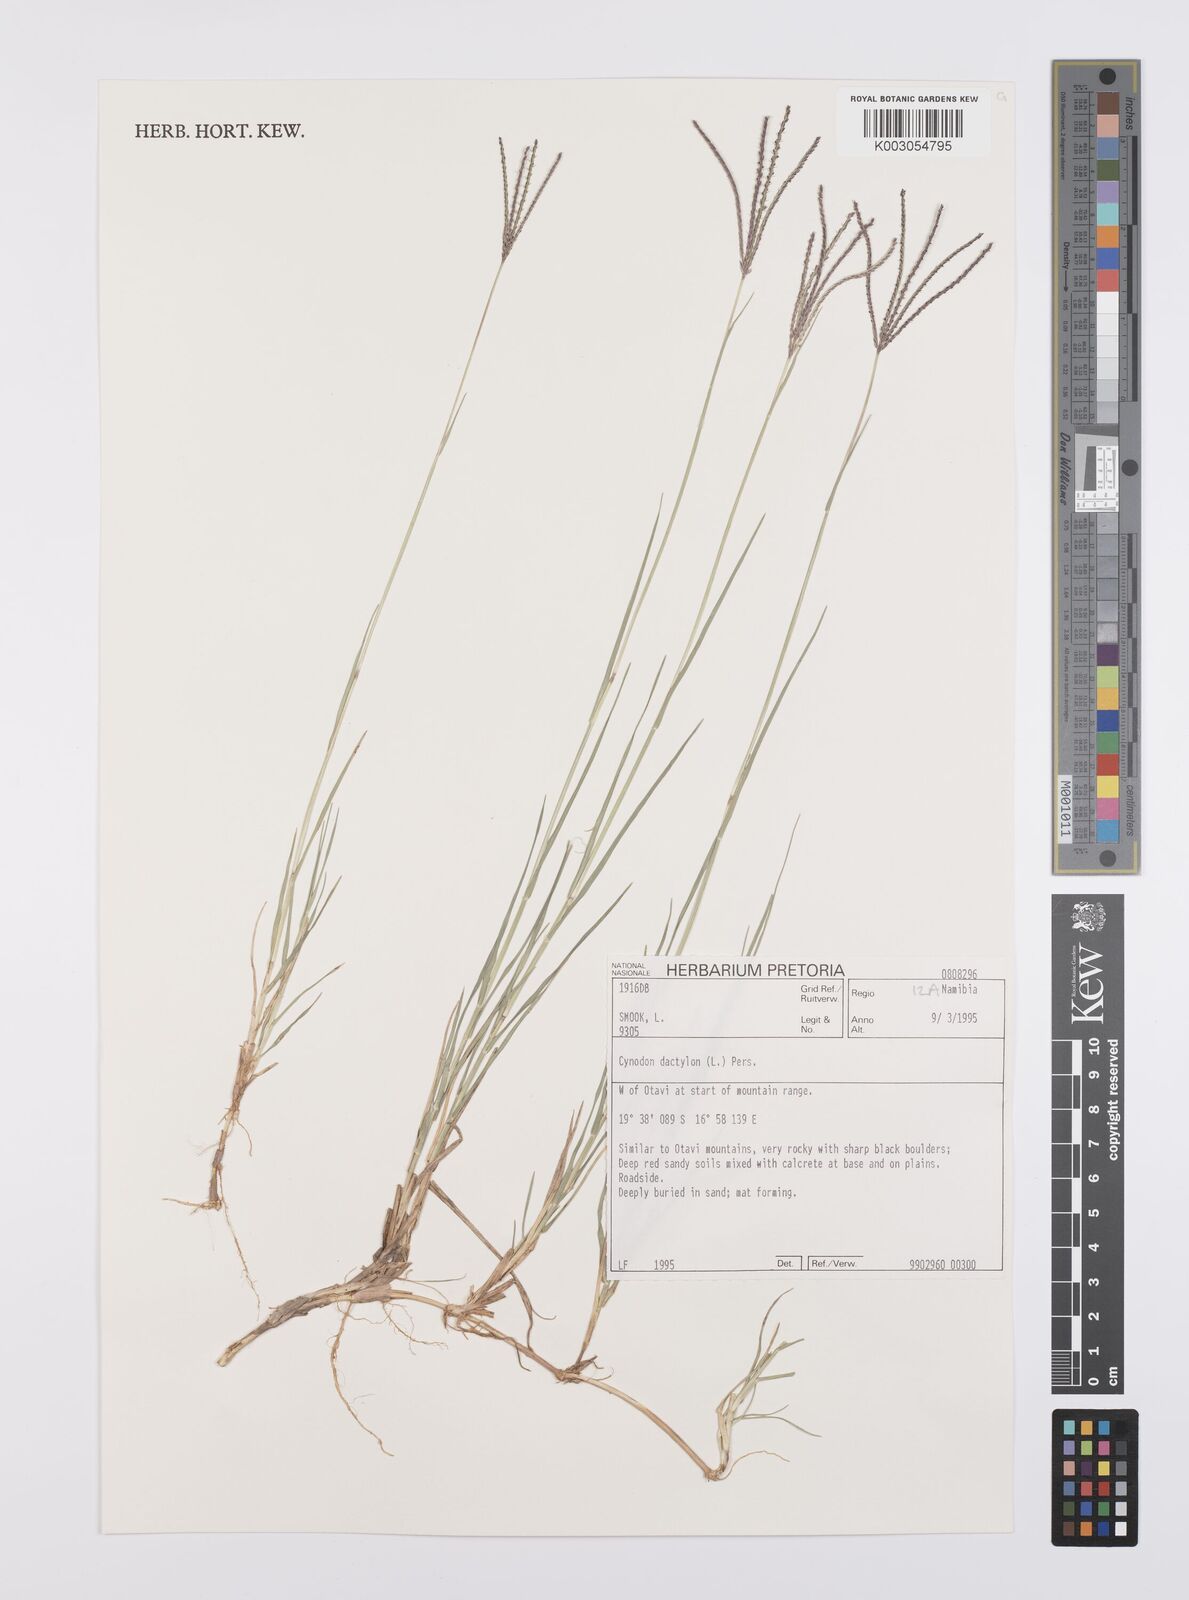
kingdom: Plantae
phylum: Tracheophyta
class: Liliopsida
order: Poales
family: Poaceae
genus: Cynodon
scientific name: Cynodon dactylon
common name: Bermuda grass
